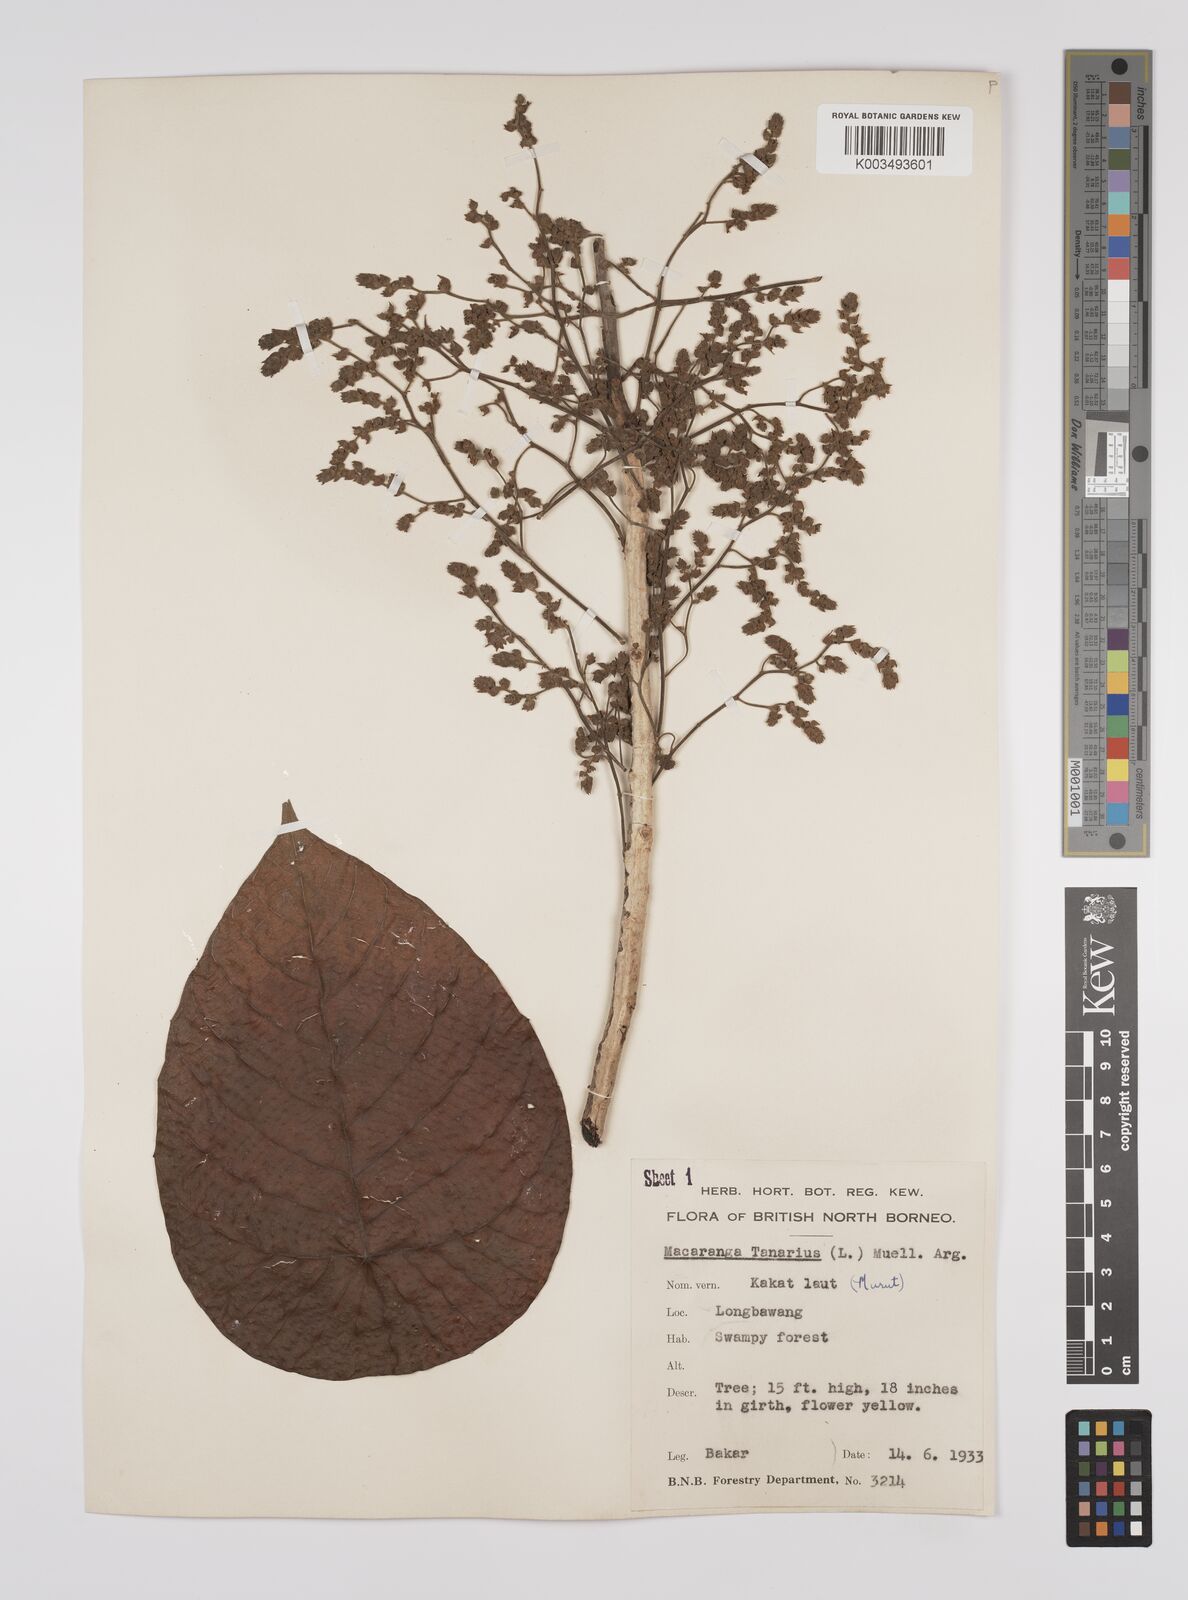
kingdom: Plantae
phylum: Tracheophyta
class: Magnoliopsida
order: Malpighiales
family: Euphorbiaceae
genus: Macaranga
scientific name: Macaranga tanarius
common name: Parasol leaf tree
